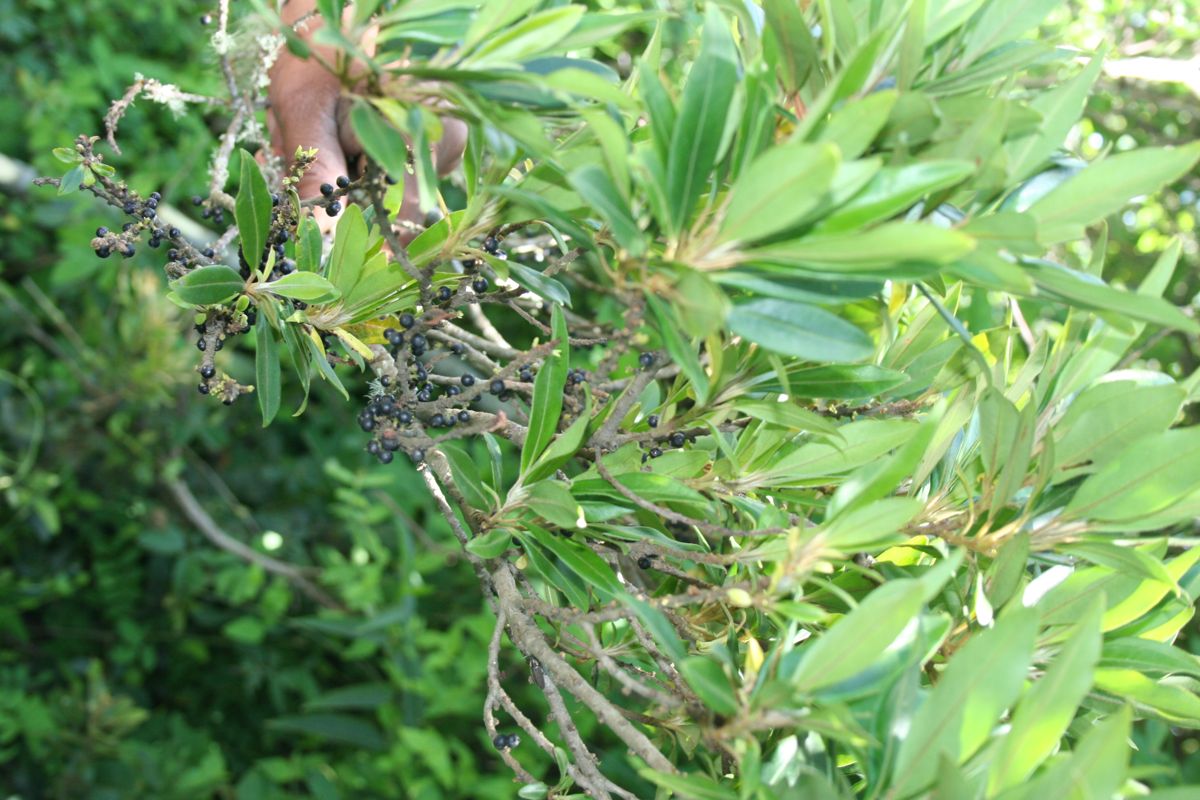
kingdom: Plantae
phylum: Tracheophyta
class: Magnoliopsida
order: Ericales
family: Primulaceae
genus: Myrsine
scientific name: Myrsine coriacea
